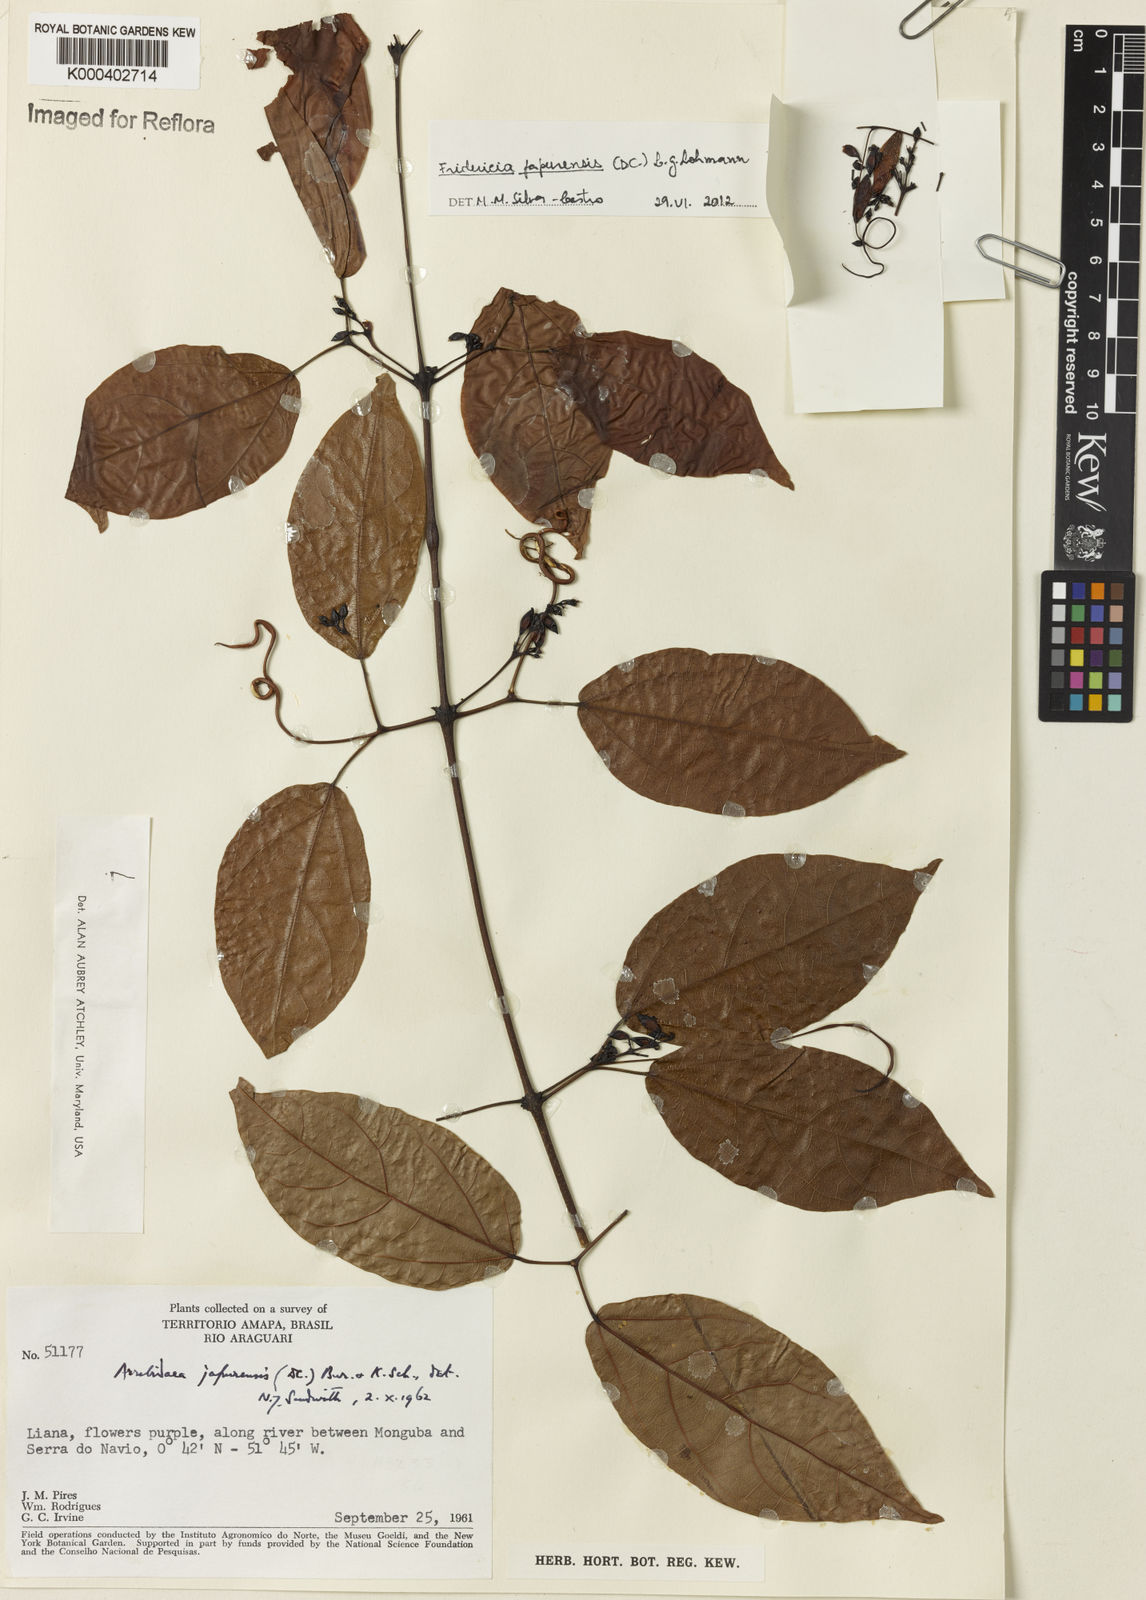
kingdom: Plantae
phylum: Tracheophyta
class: Magnoliopsida
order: Lamiales
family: Bignoniaceae
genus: Fridericia
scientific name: Fridericia japurensis
